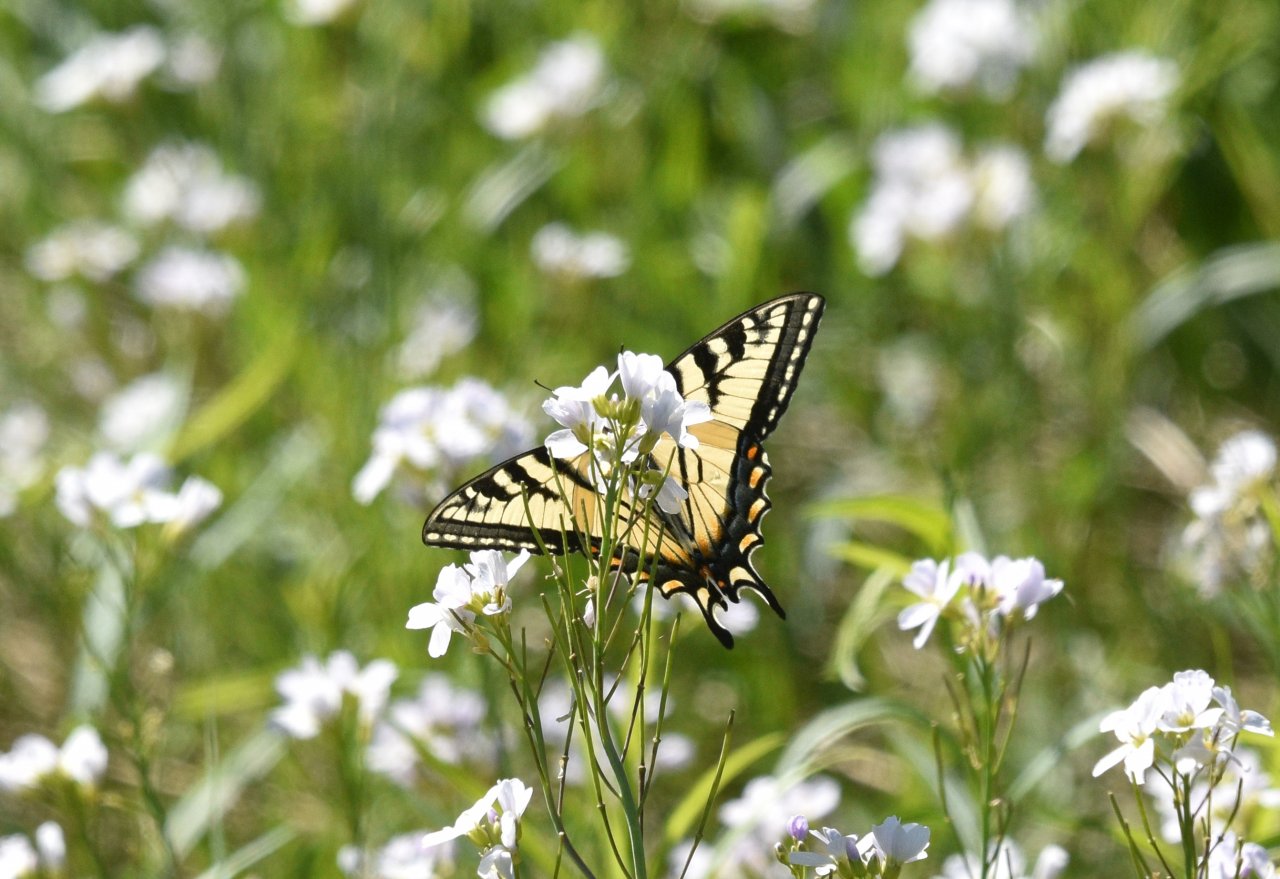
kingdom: Animalia
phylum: Arthropoda
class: Insecta
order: Lepidoptera
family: Papilionidae
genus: Pterourus
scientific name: Pterourus canadensis
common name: Canadian Tiger Swallowtail
